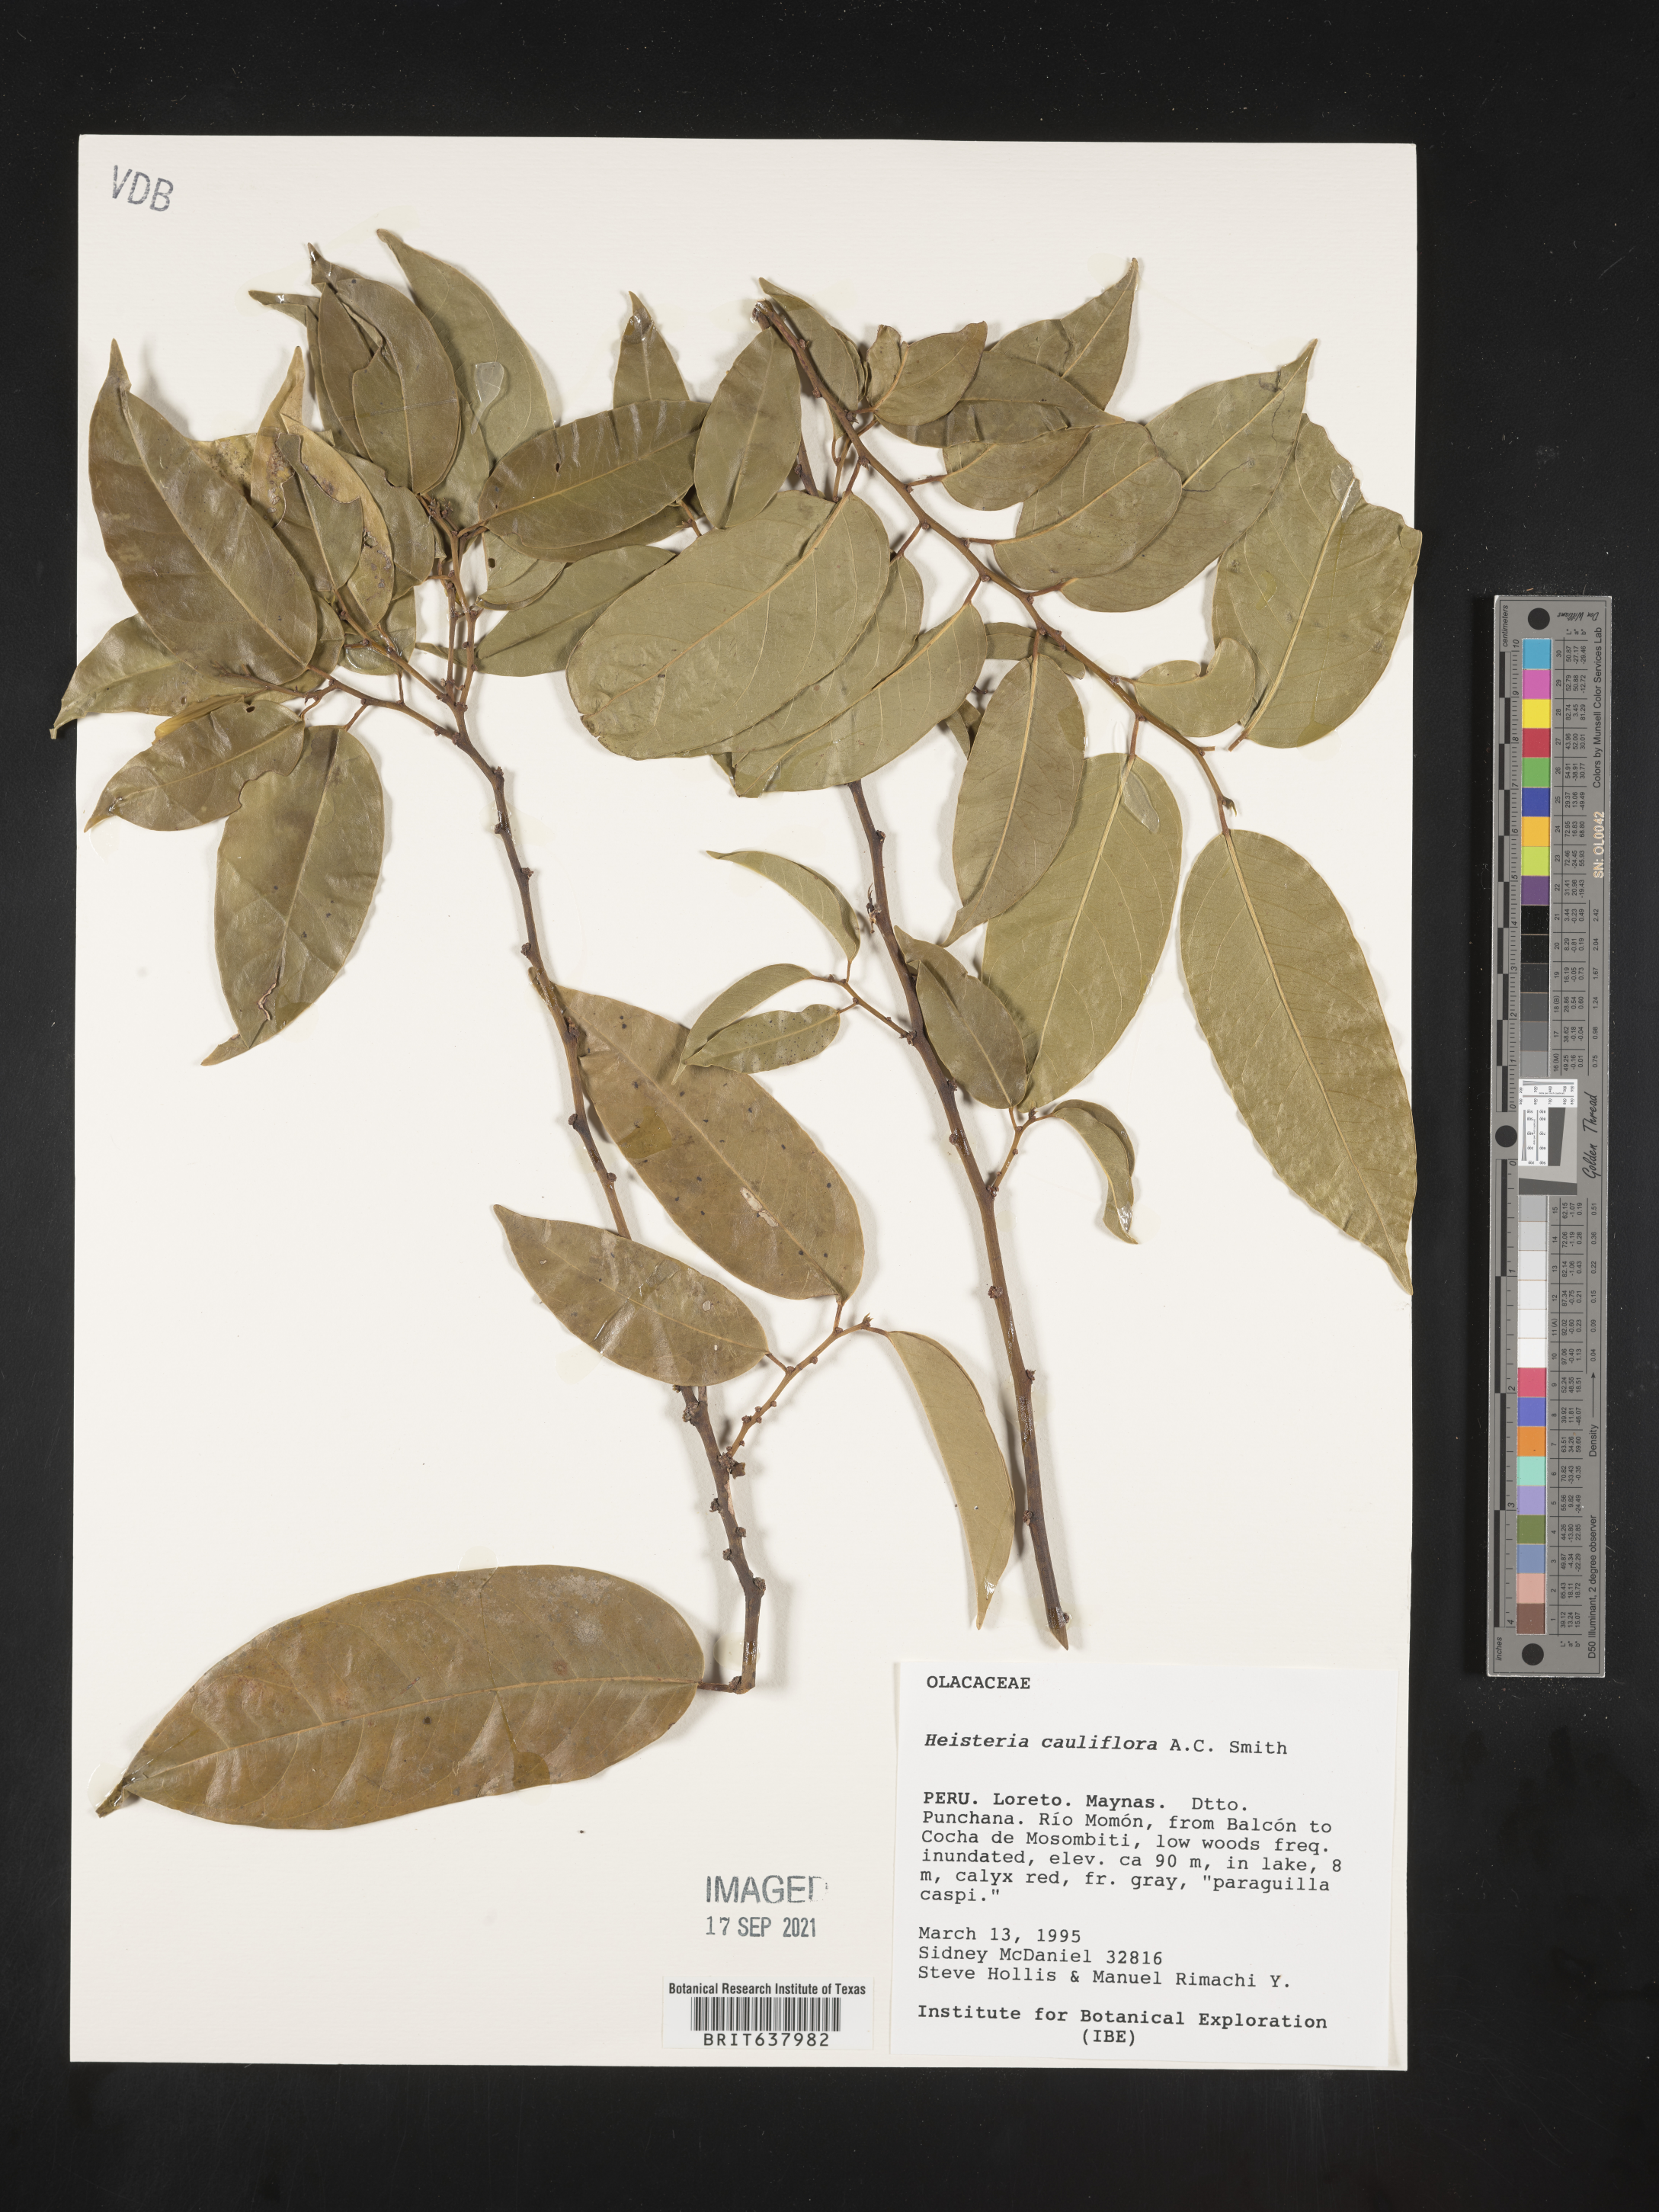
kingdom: Plantae
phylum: Tracheophyta
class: Magnoliopsida
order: Santalales
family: Erythropalaceae
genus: Heisteria
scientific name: Heisteria
